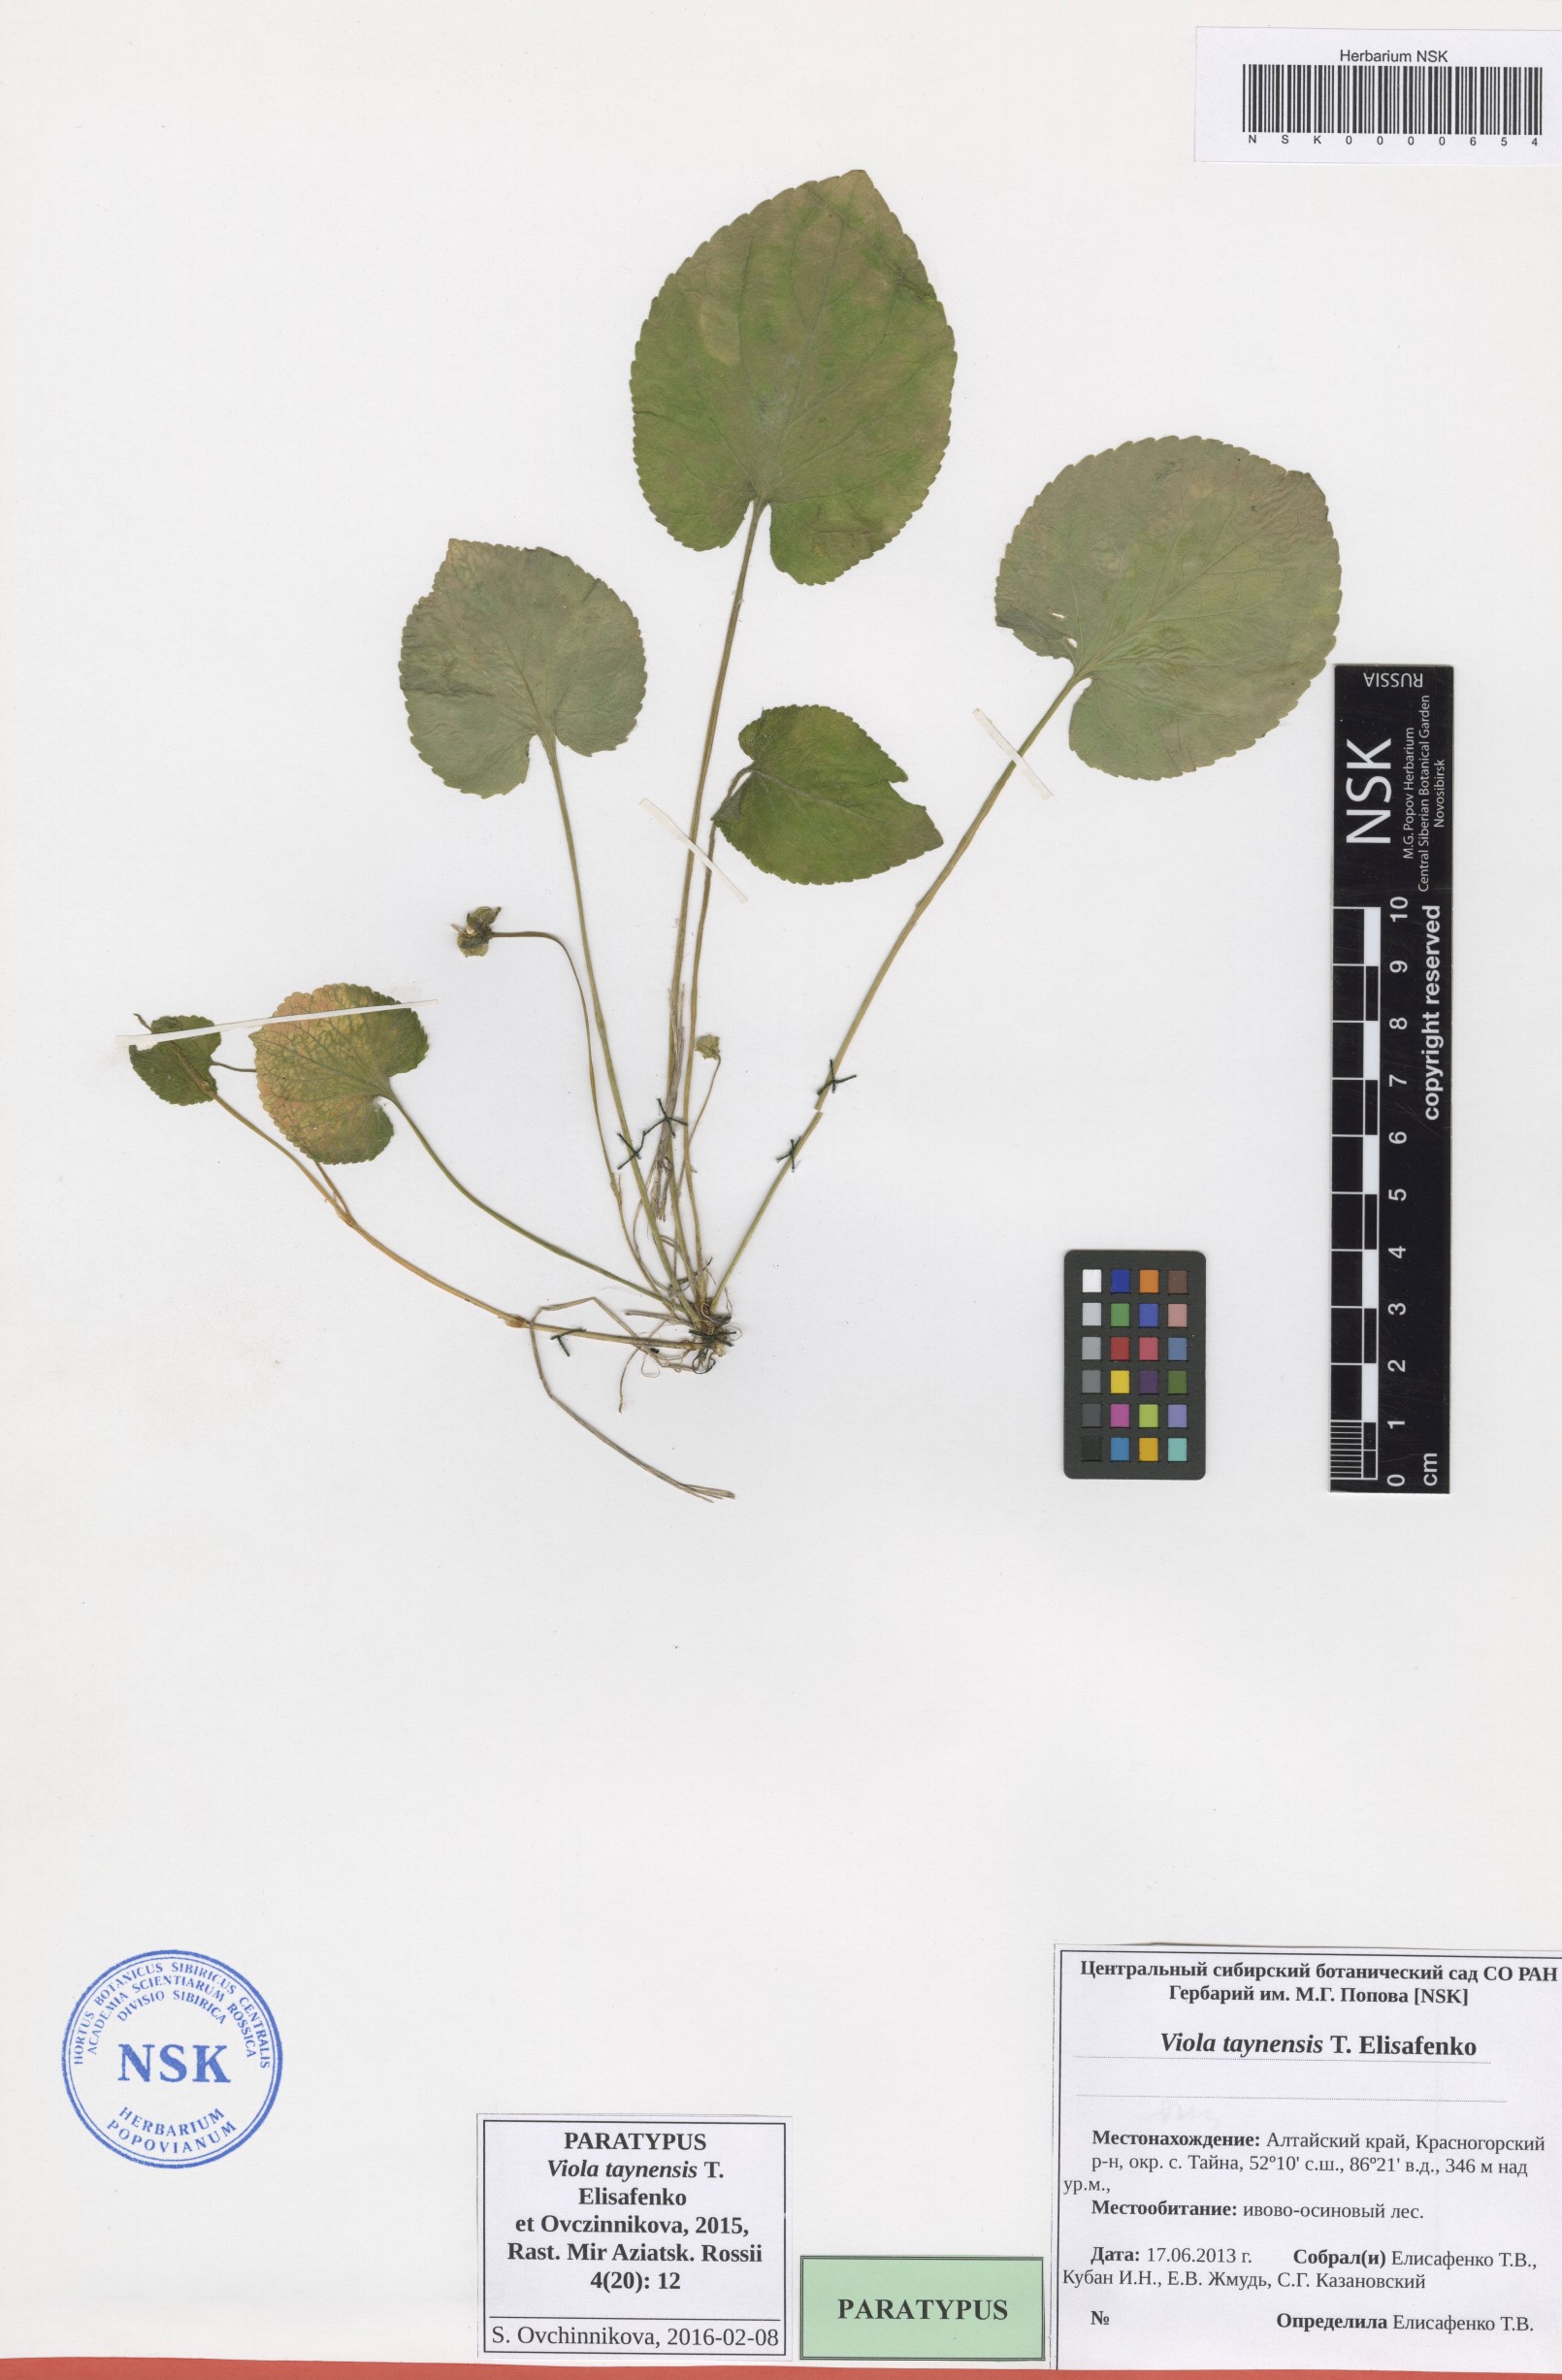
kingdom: Plantae
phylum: Tracheophyta
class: Magnoliopsida
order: Malpighiales
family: Violaceae
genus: Viola
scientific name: Viola odorata
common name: Sweet violet
